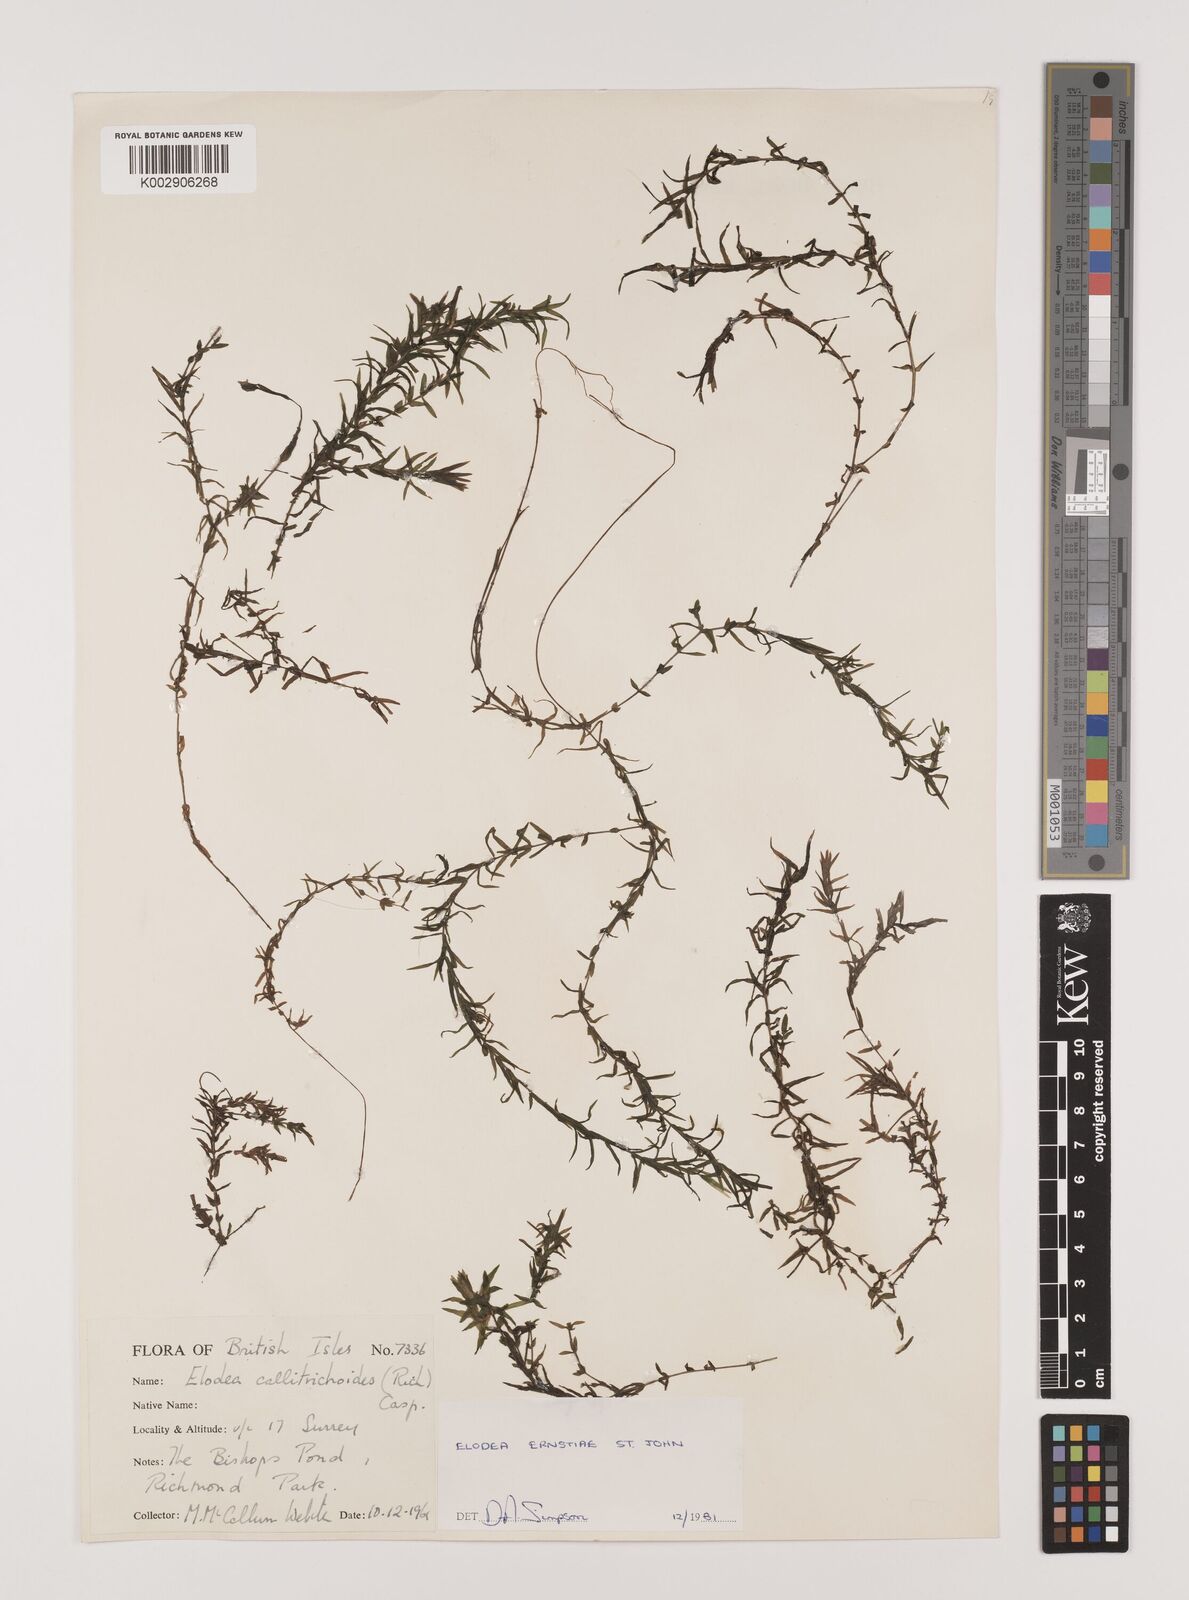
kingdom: Plantae
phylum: Tracheophyta
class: Liliopsida
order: Alismatales
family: Hydrocharitaceae
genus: Elodea
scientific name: Elodea callitrichoides
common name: South american waterweed
